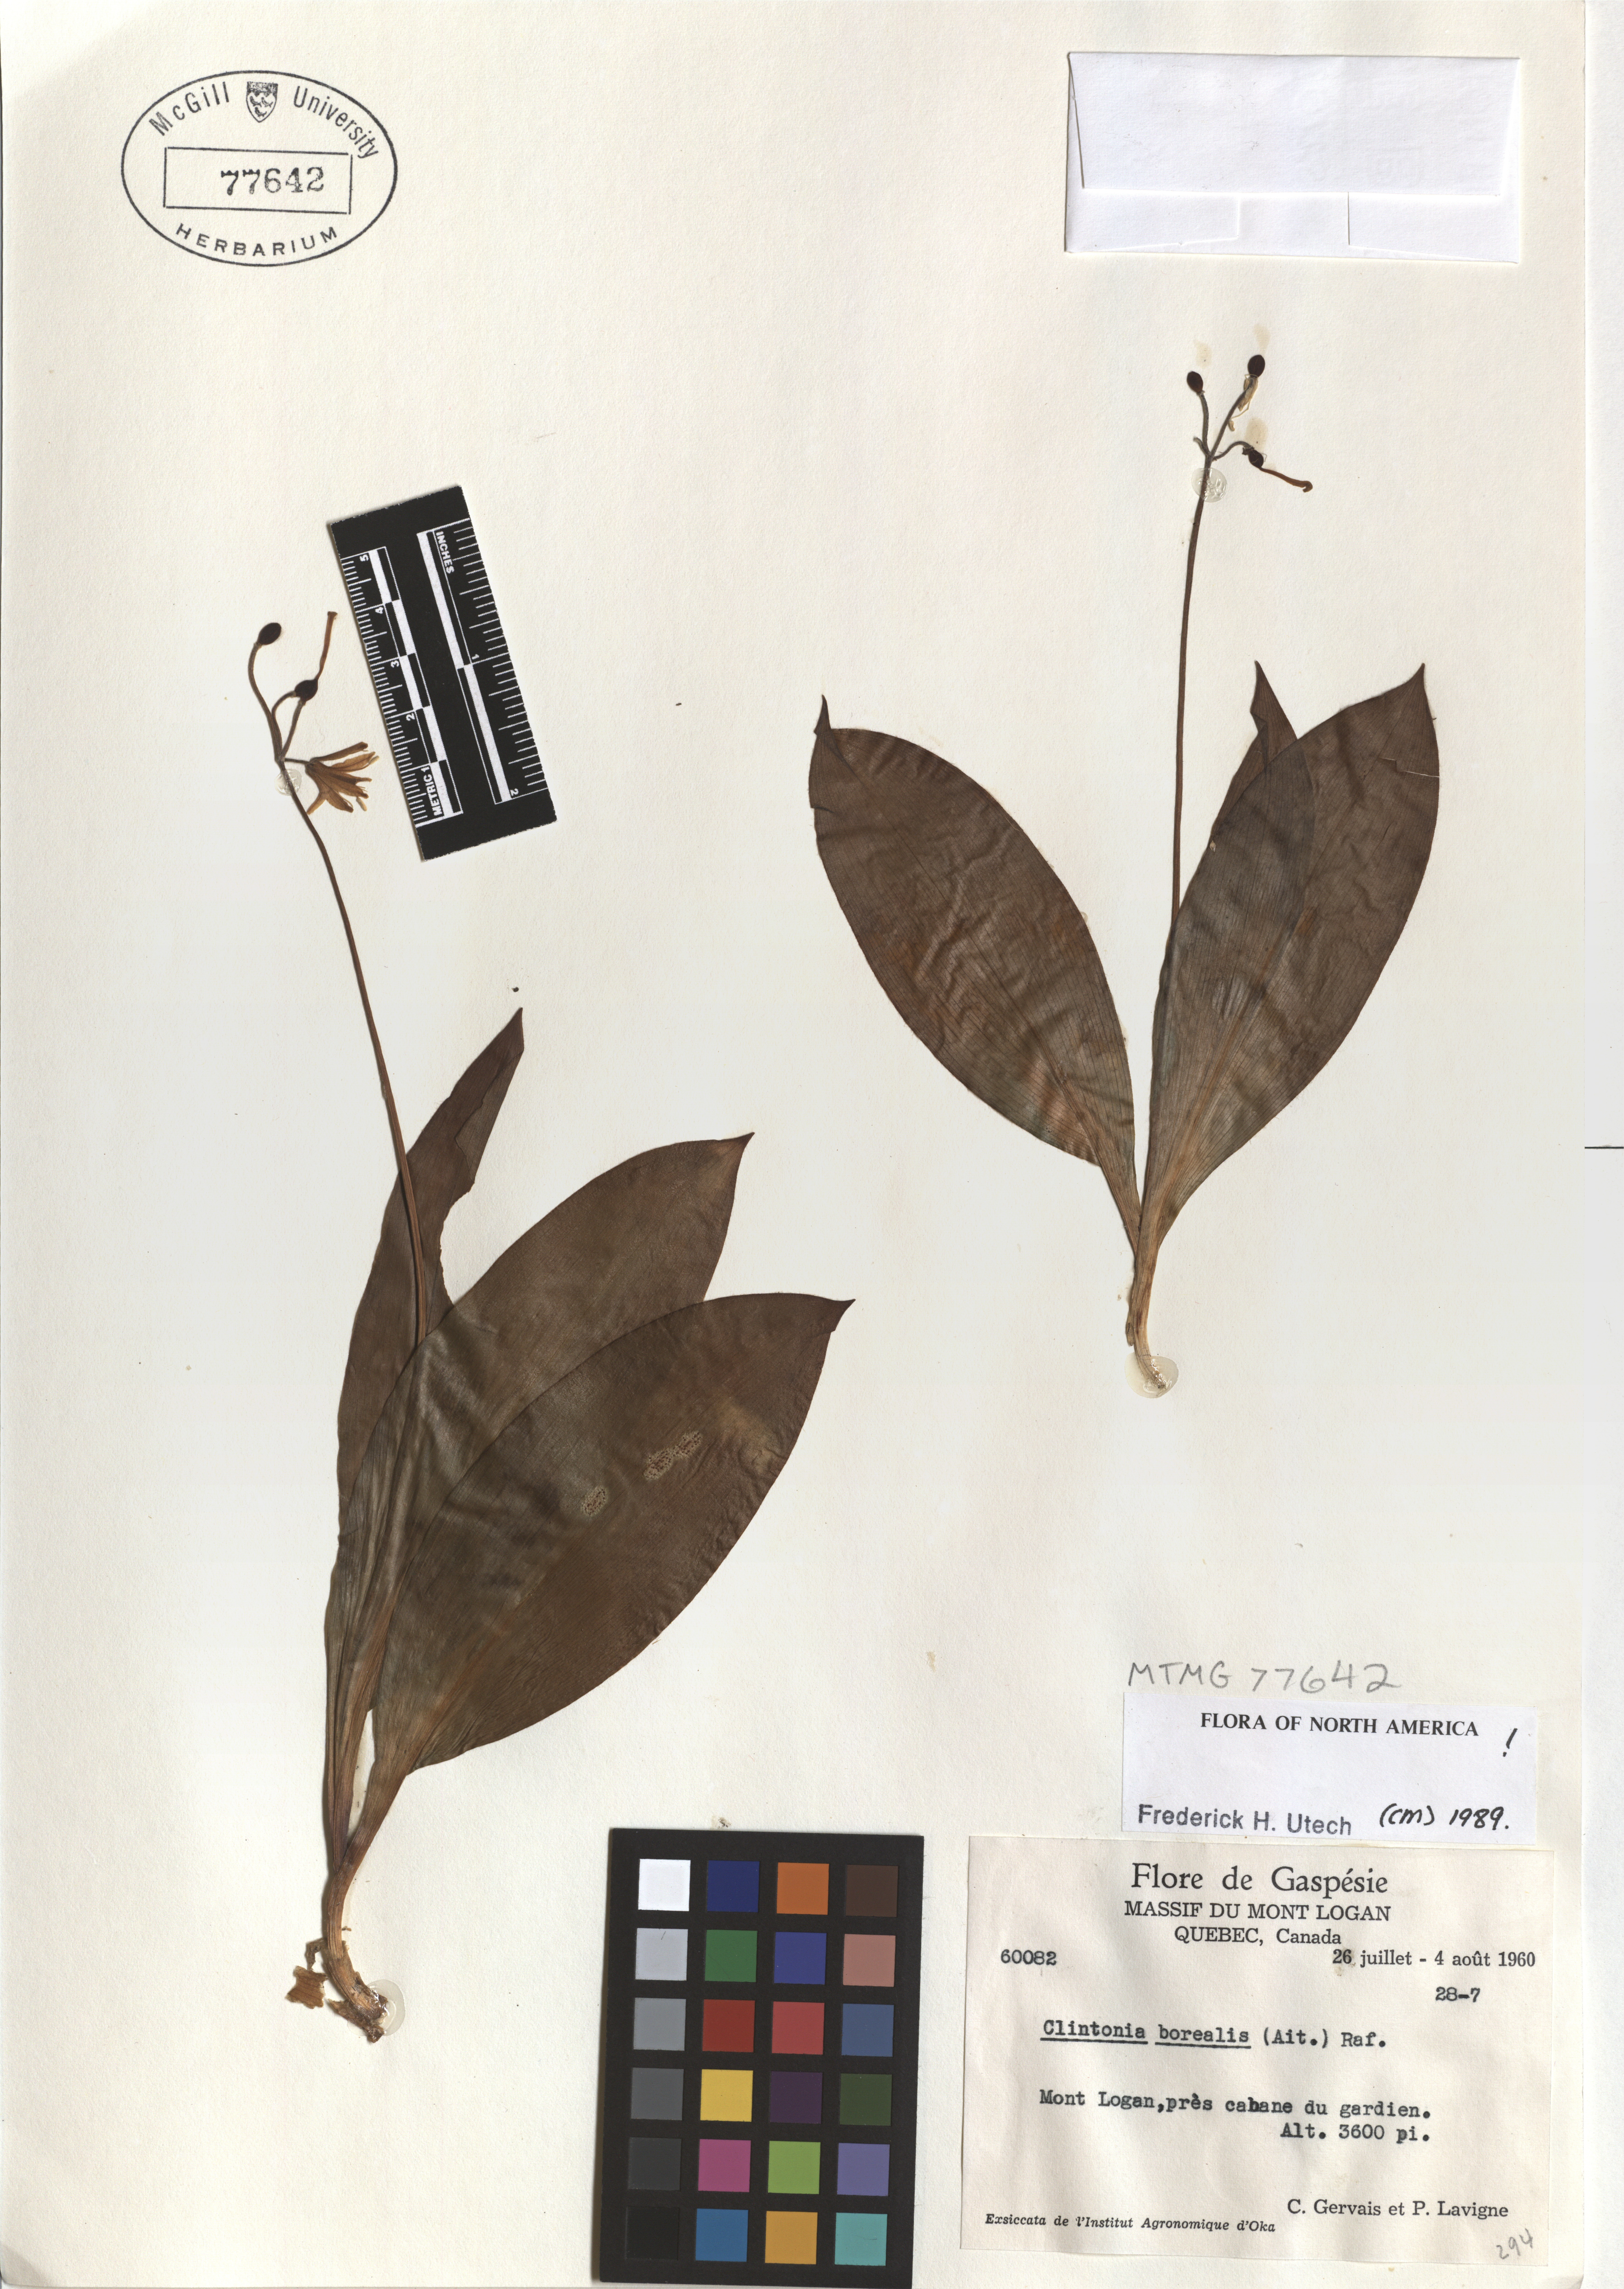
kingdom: Plantae
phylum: Tracheophyta
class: Liliopsida
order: Liliales
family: Liliaceae
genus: Clintonia
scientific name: Clintonia borealis
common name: Yellow clintonia
